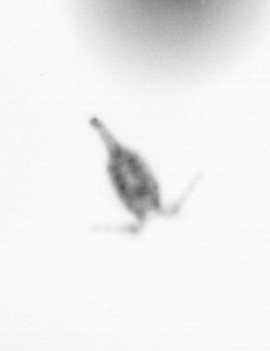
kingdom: Animalia
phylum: Arthropoda
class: Copepoda
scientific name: Copepoda
